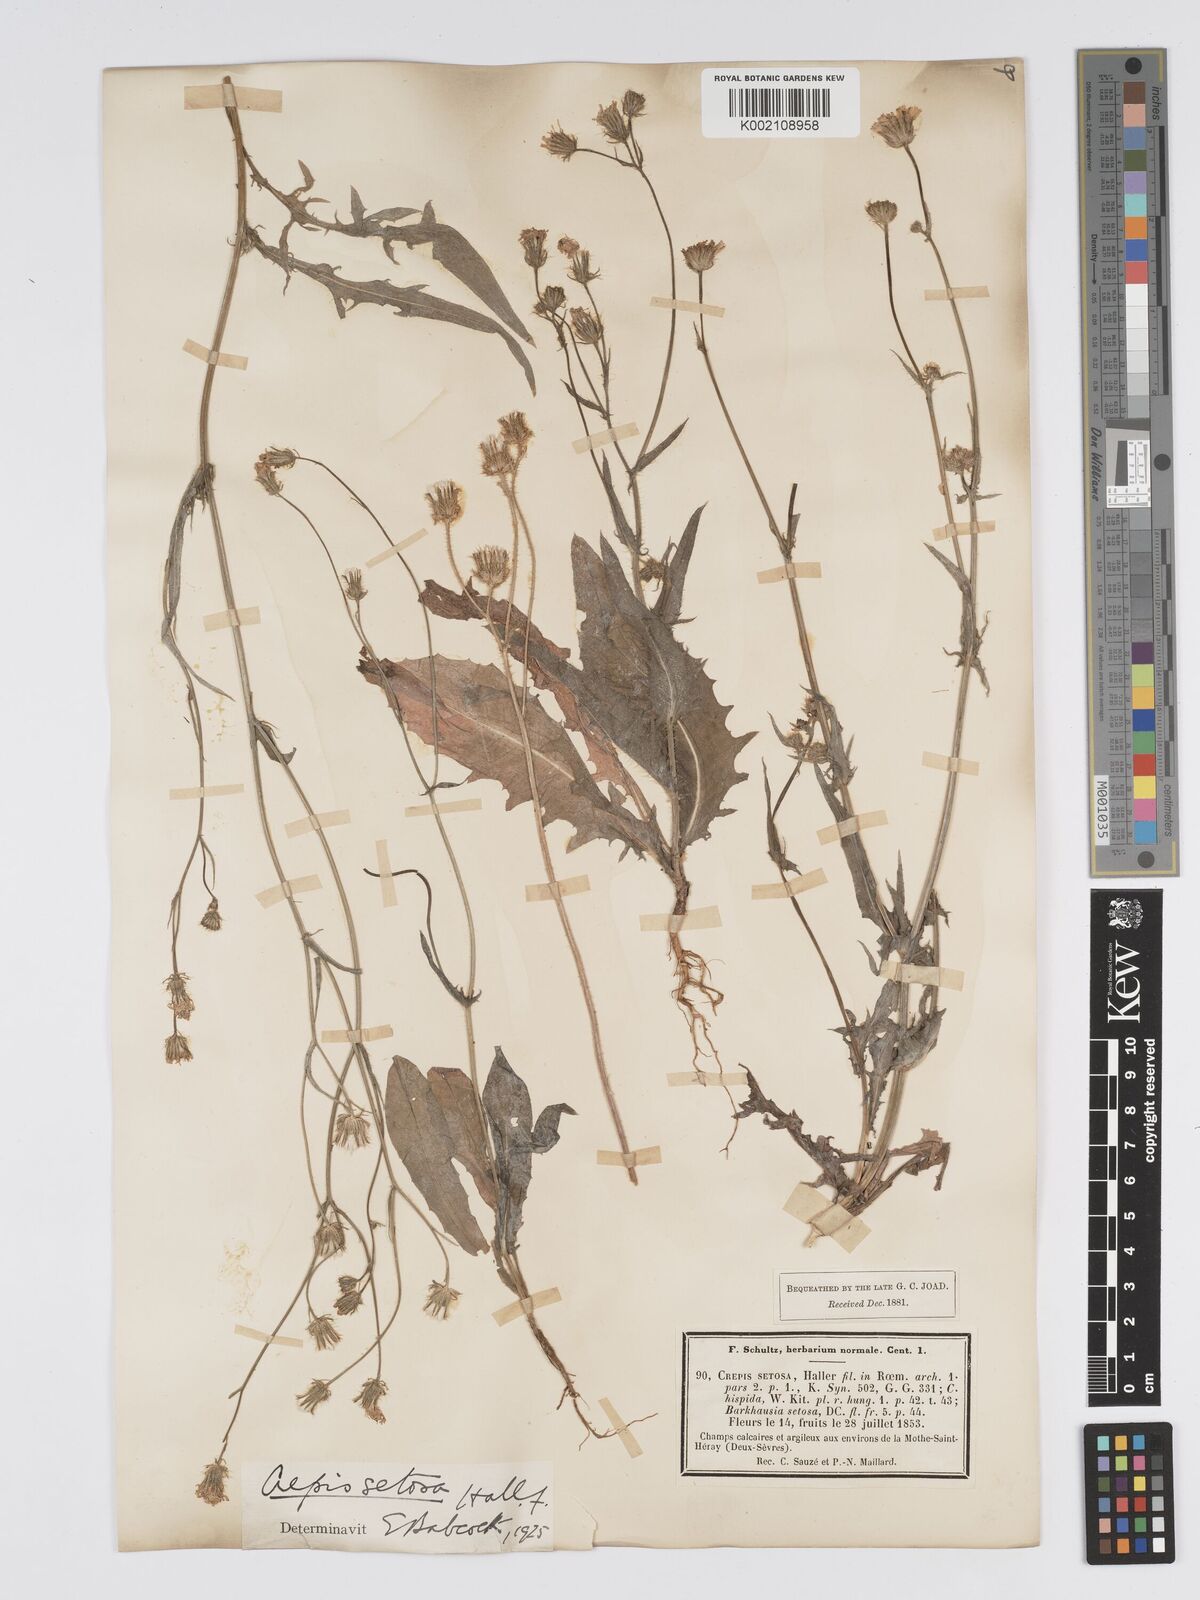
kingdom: Plantae
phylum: Tracheophyta
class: Magnoliopsida
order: Asterales
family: Asteraceae
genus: Crepis
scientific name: Crepis setosa
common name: Bristly hawk's-beard
